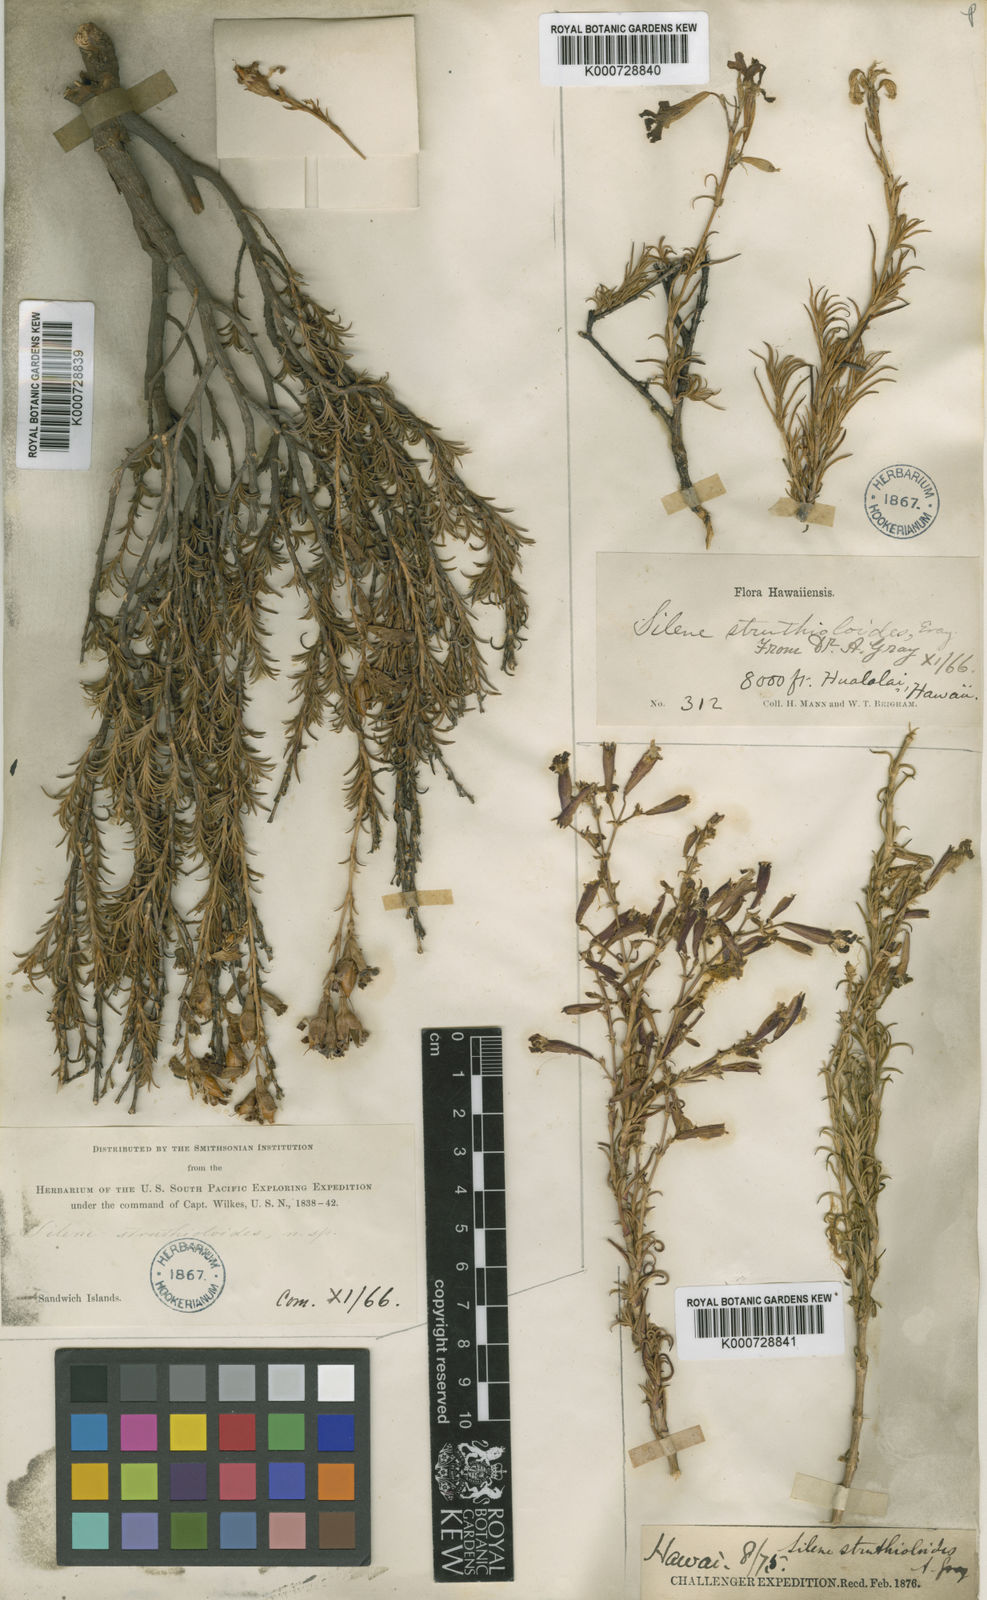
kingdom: Plantae
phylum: Tracheophyta
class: Magnoliopsida
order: Caryophyllales
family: Caryophyllaceae
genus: Silene
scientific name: Silene struthioloides
